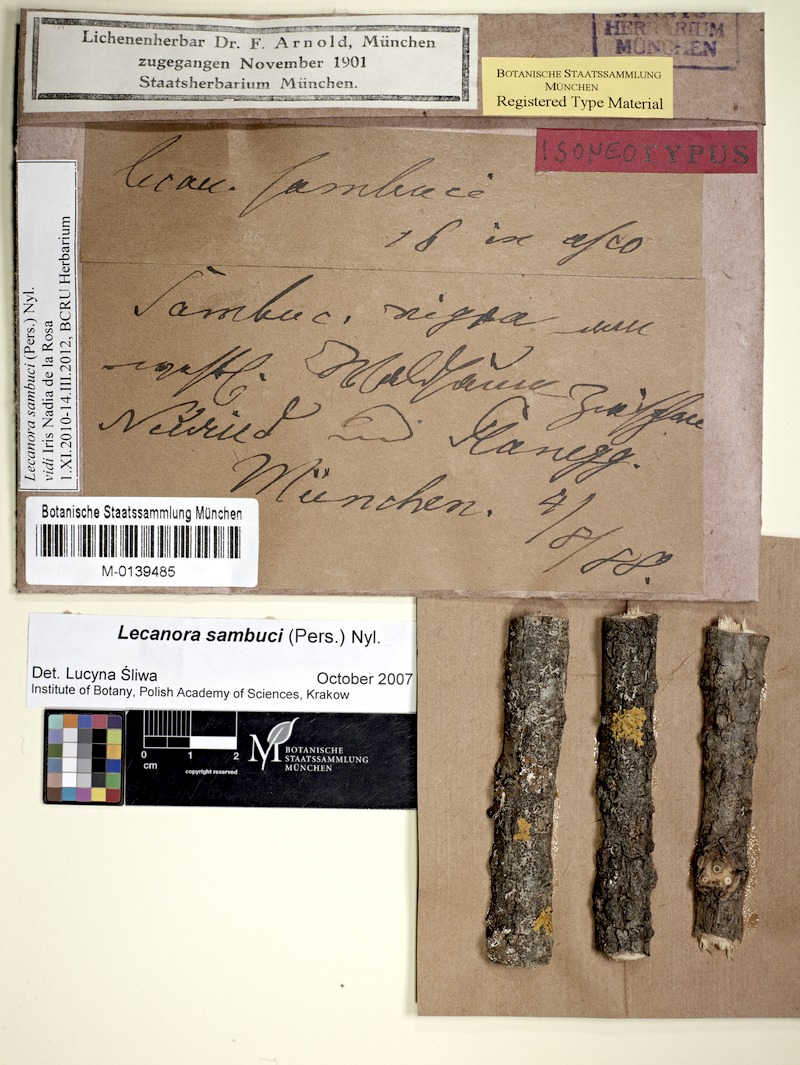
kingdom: Fungi
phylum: Ascomycota
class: Lecanoromycetes
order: Lecanorales
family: Lecanoraceae
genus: Polyozosia
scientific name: Polyozosia sambuci
